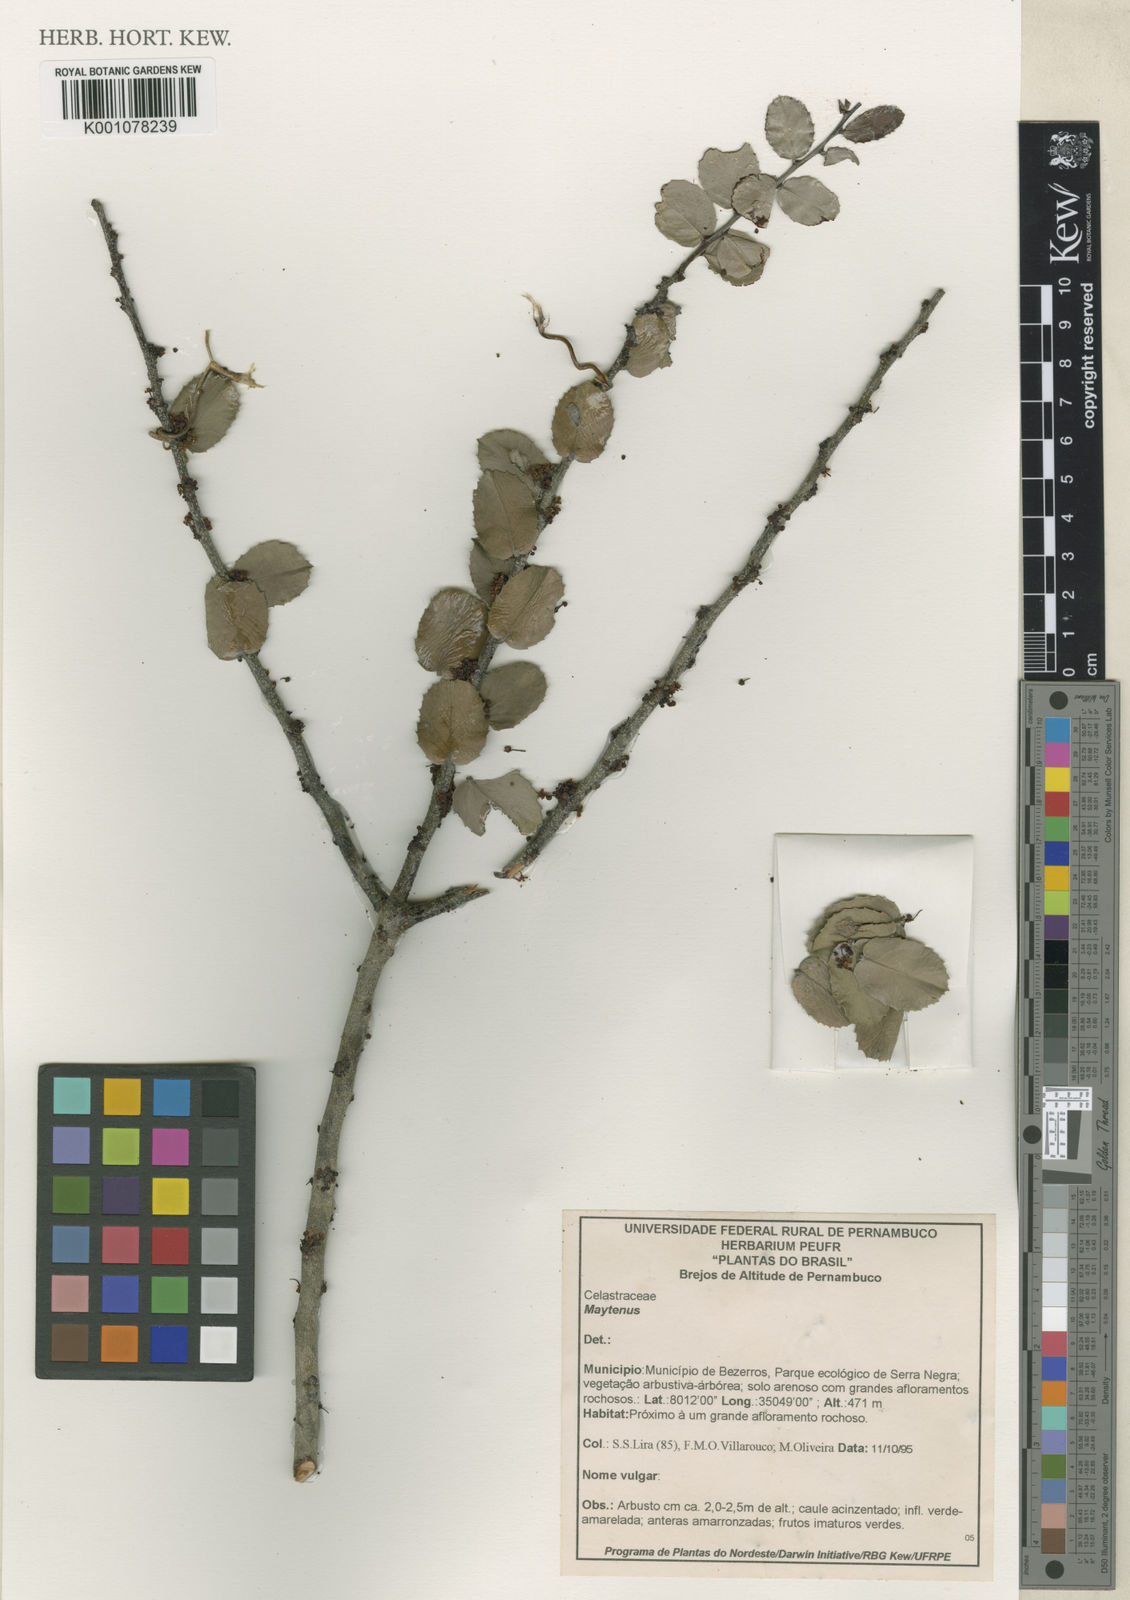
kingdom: Plantae
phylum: Tracheophyta
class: Magnoliopsida
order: Celastrales
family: Celastraceae
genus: Maytenus
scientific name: Maytenus
